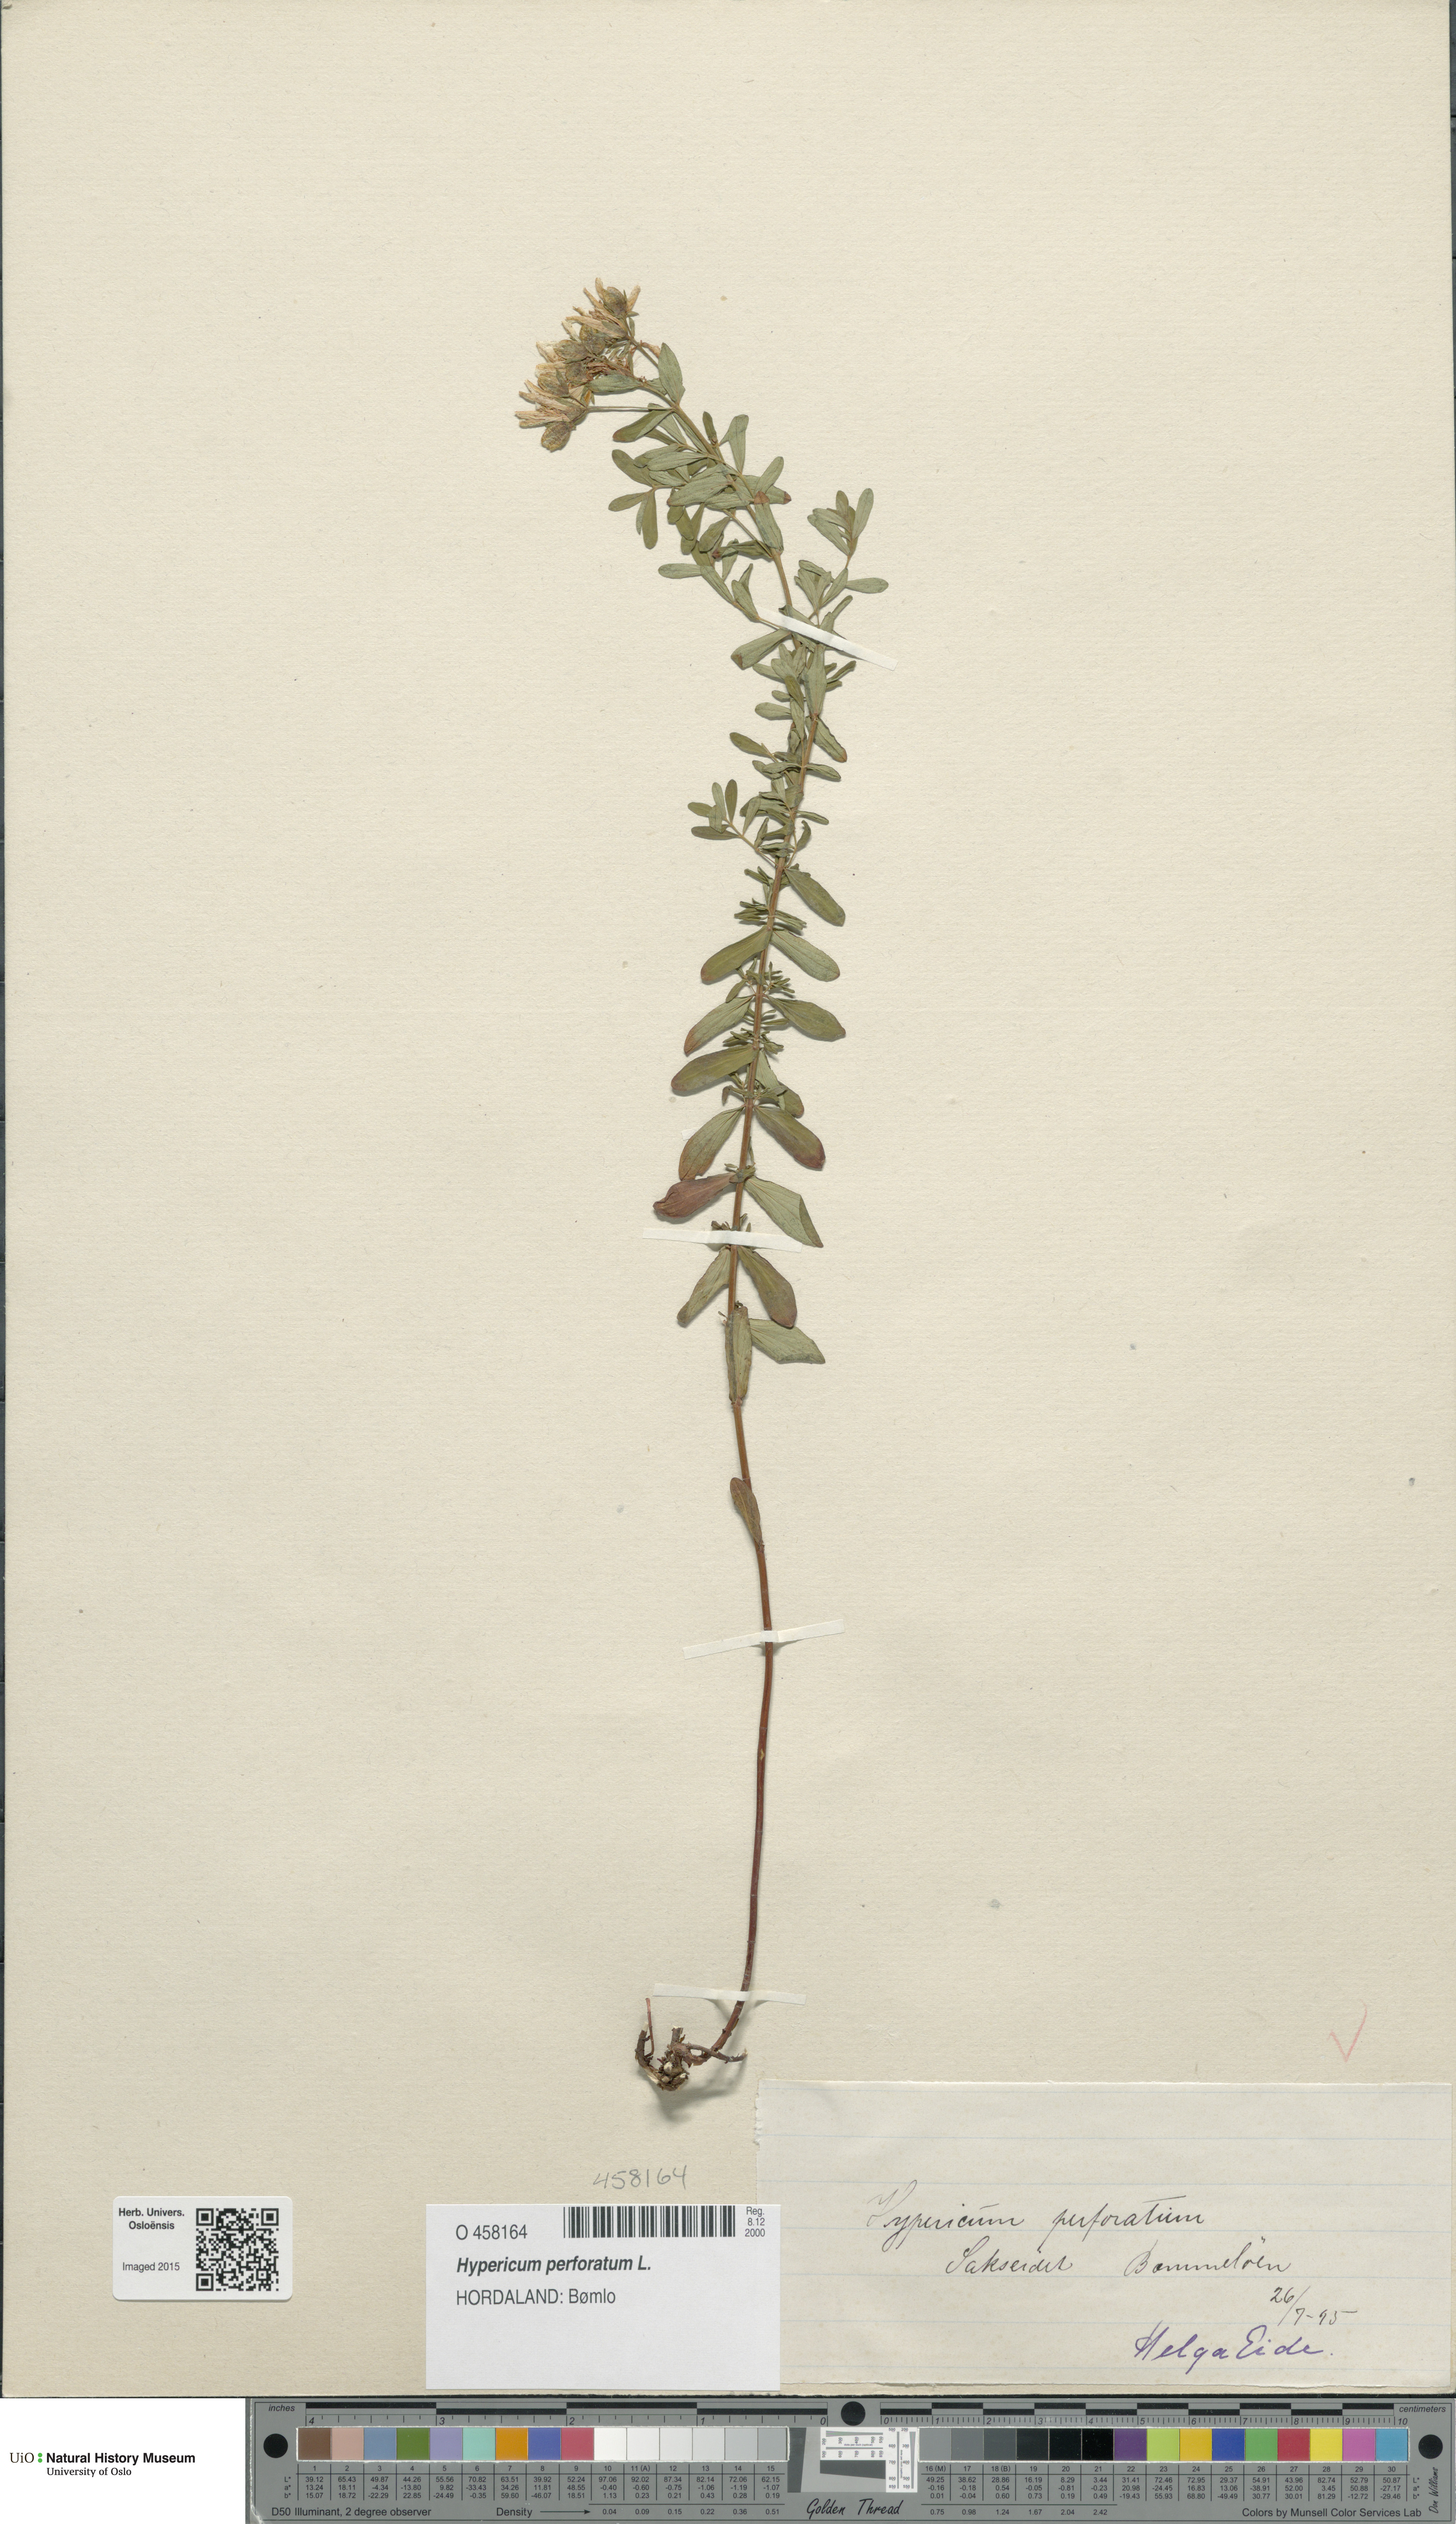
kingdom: Plantae
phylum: Tracheophyta
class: Magnoliopsida
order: Malpighiales
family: Hypericaceae
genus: Hypericum
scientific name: Hypericum perforatum
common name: Common st. johnswort
